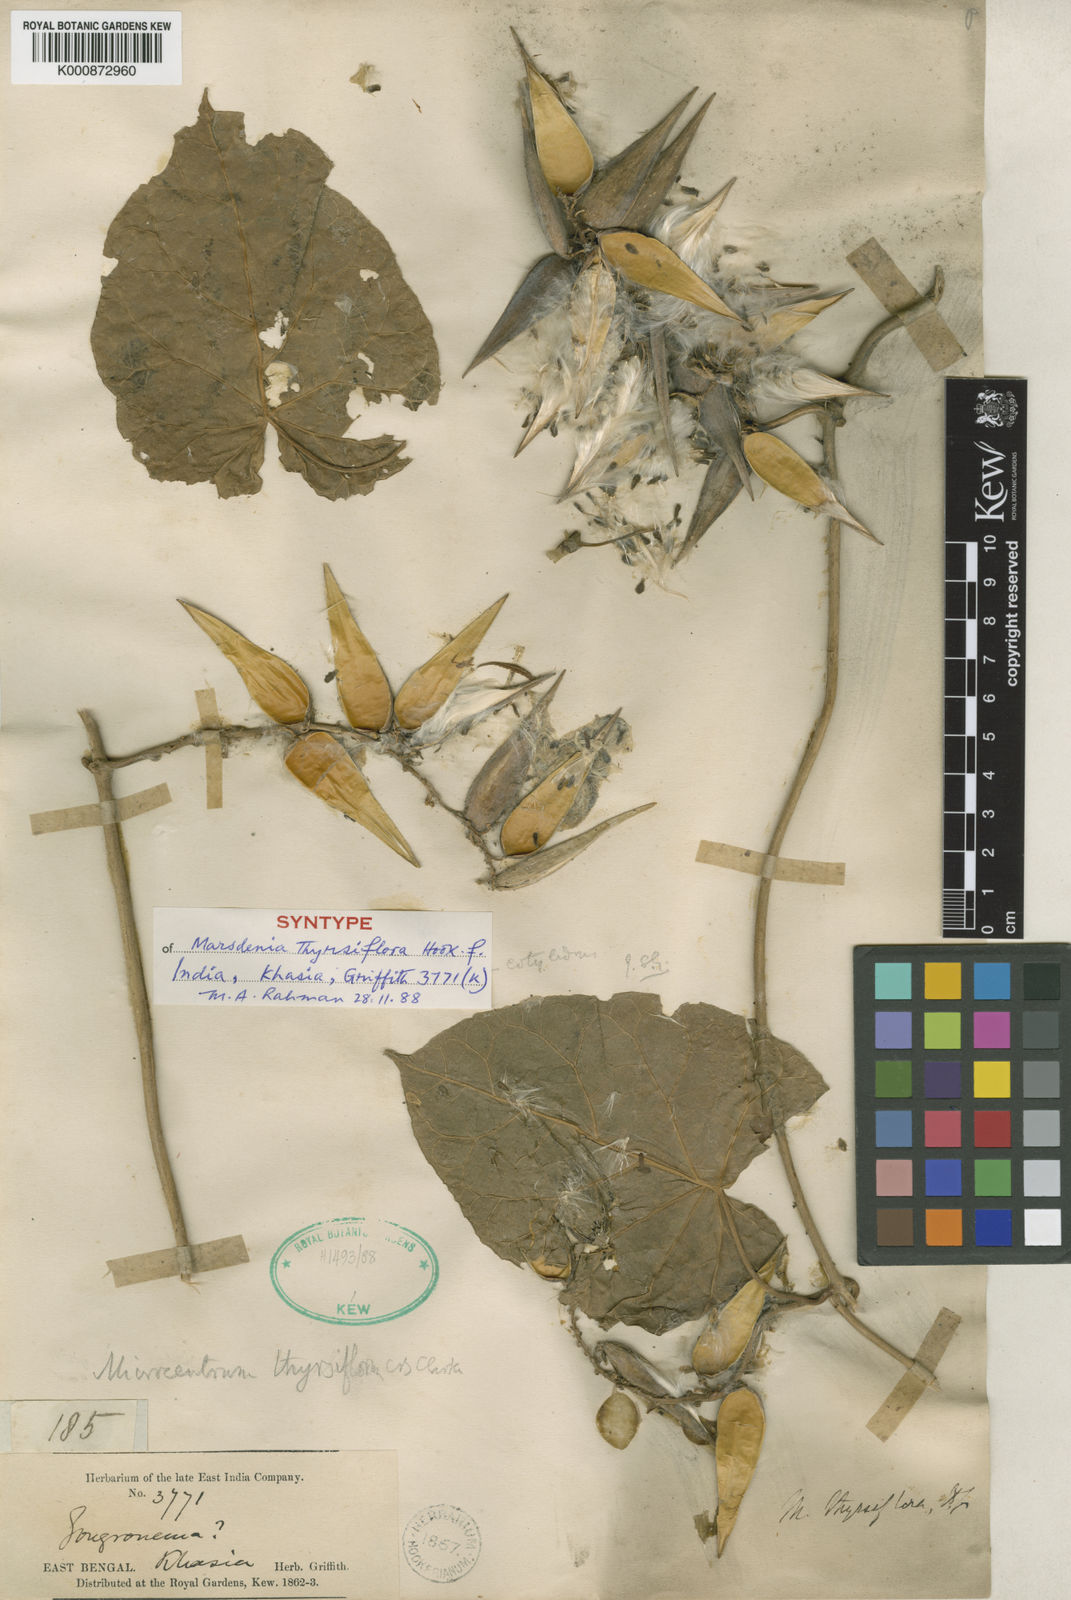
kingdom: Plantae
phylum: Tracheophyta
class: Magnoliopsida
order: Gentianales
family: Apocynaceae
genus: Dischidanthus
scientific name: Dischidanthus thyrsiflorus
